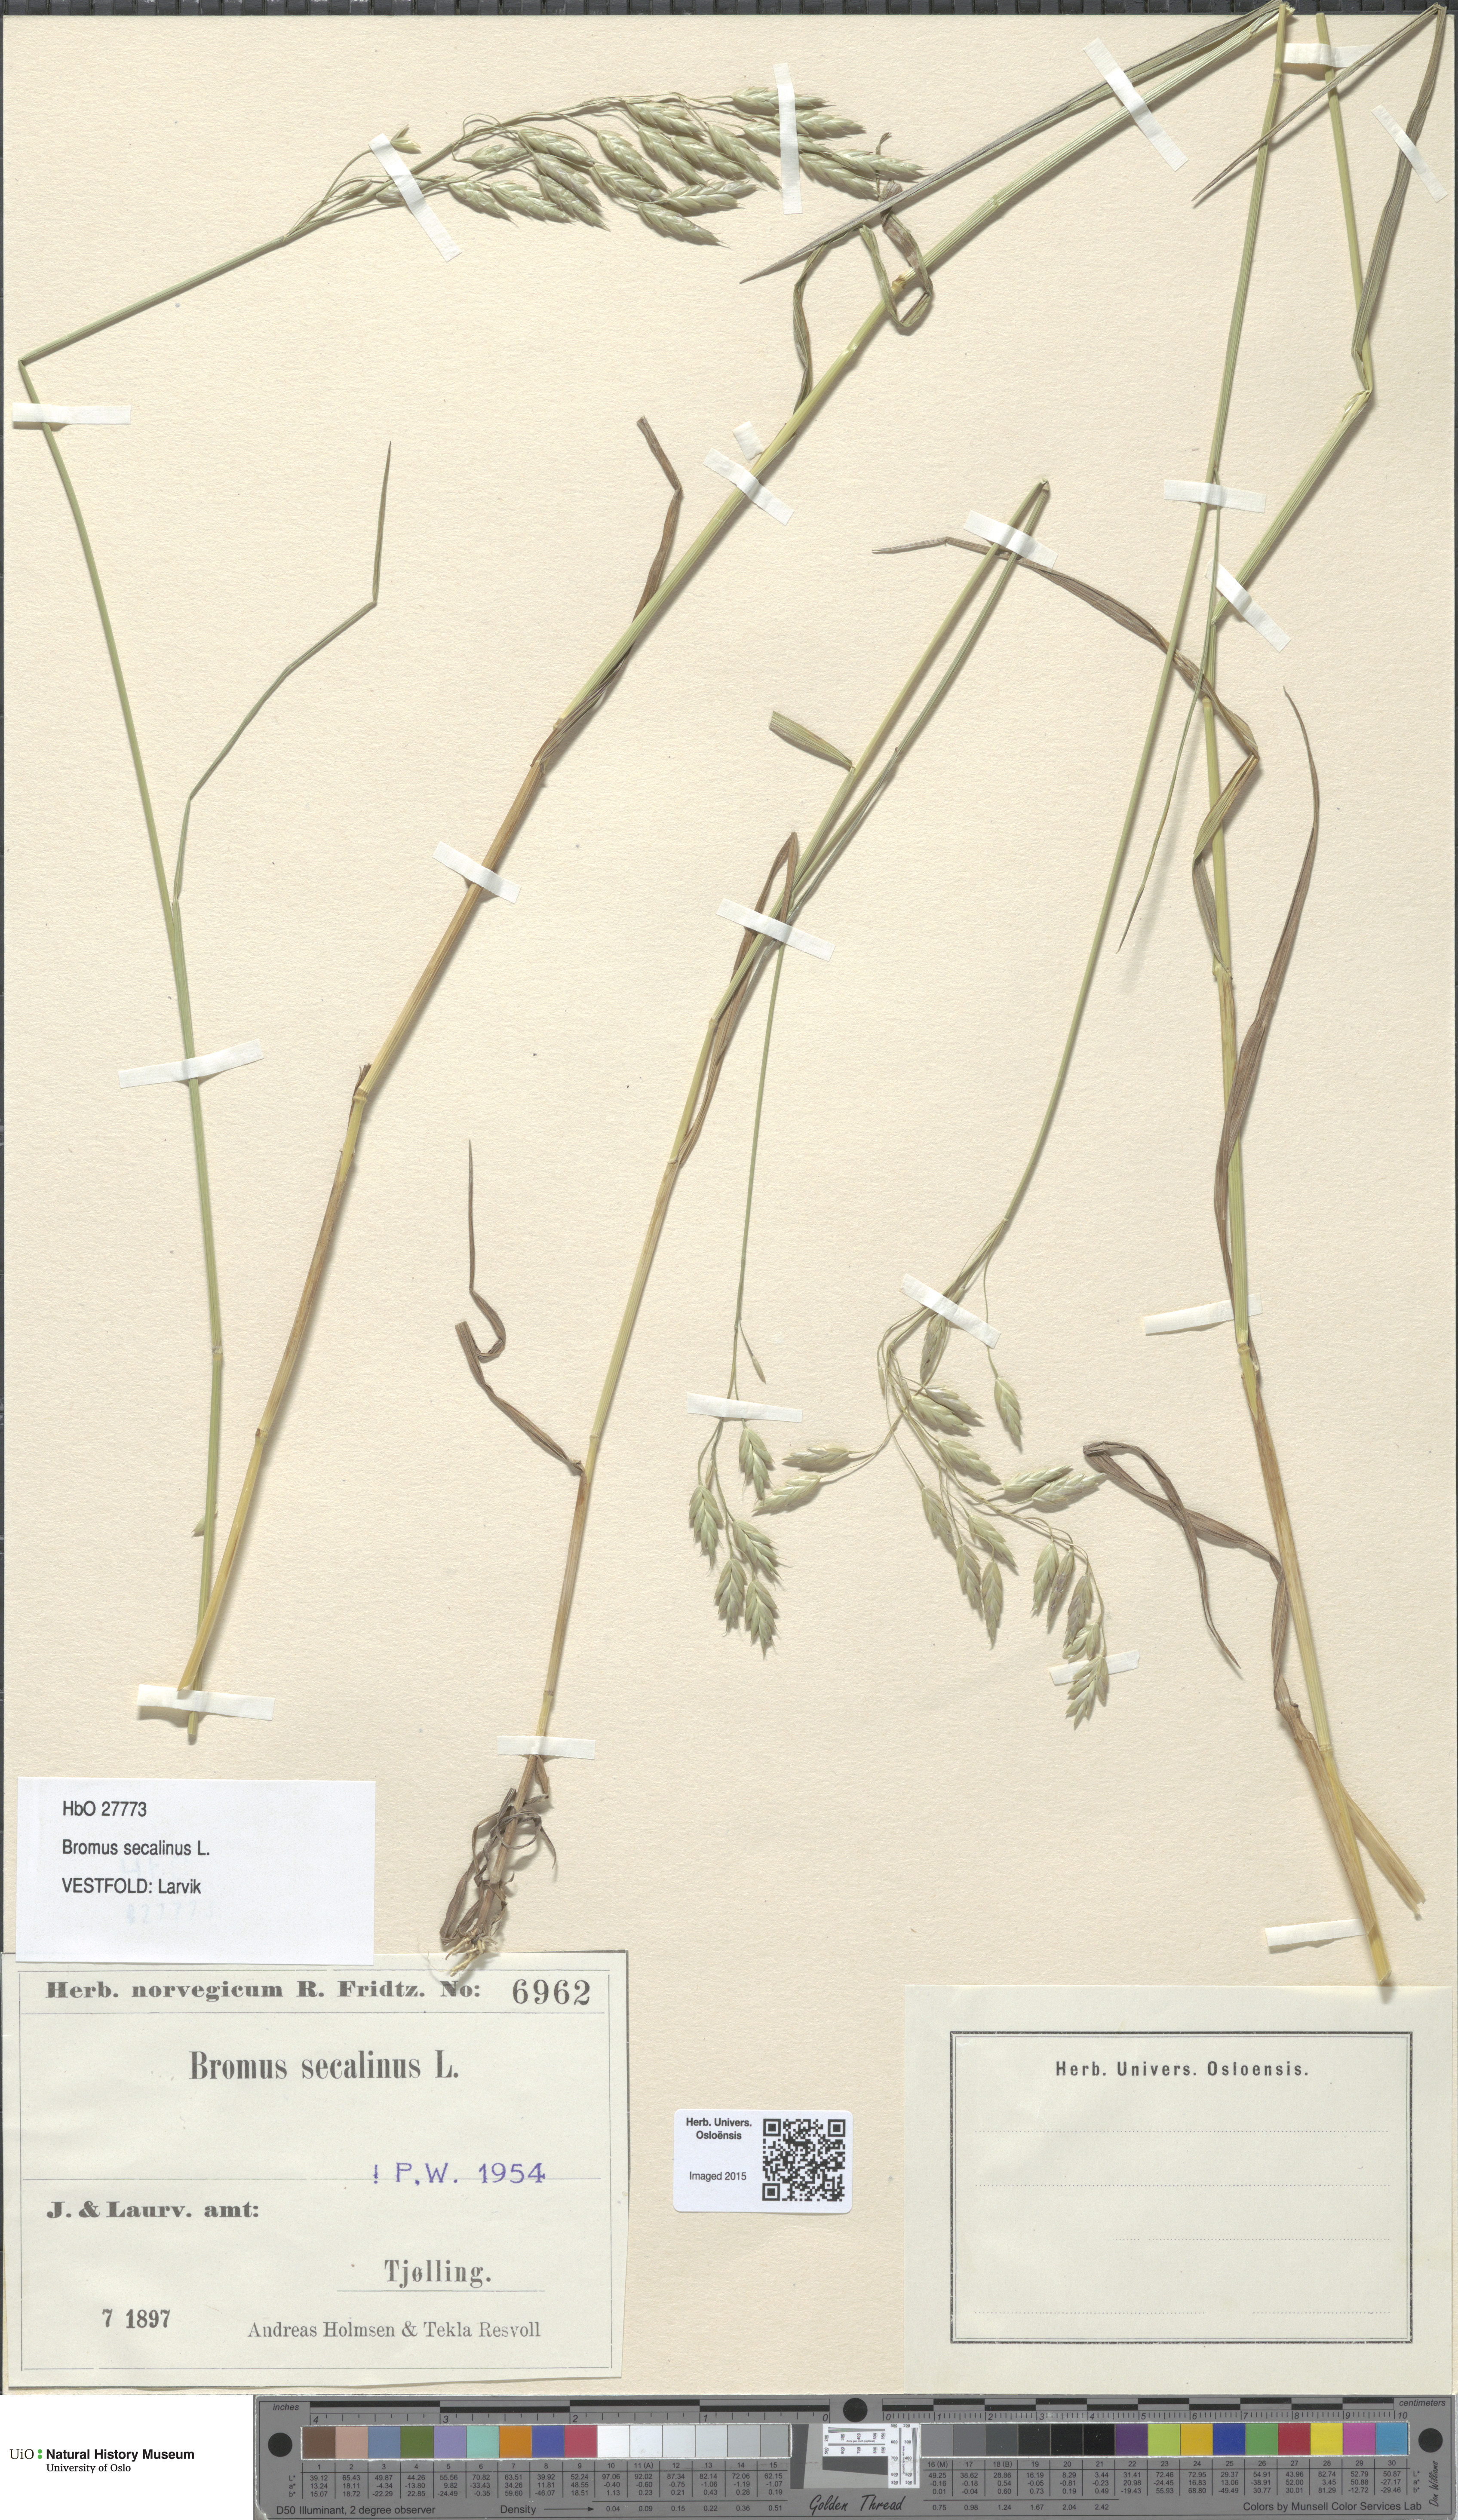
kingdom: Plantae
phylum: Tracheophyta
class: Liliopsida
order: Poales
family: Poaceae
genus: Bromus
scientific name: Bromus secalinus
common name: Rye brome
